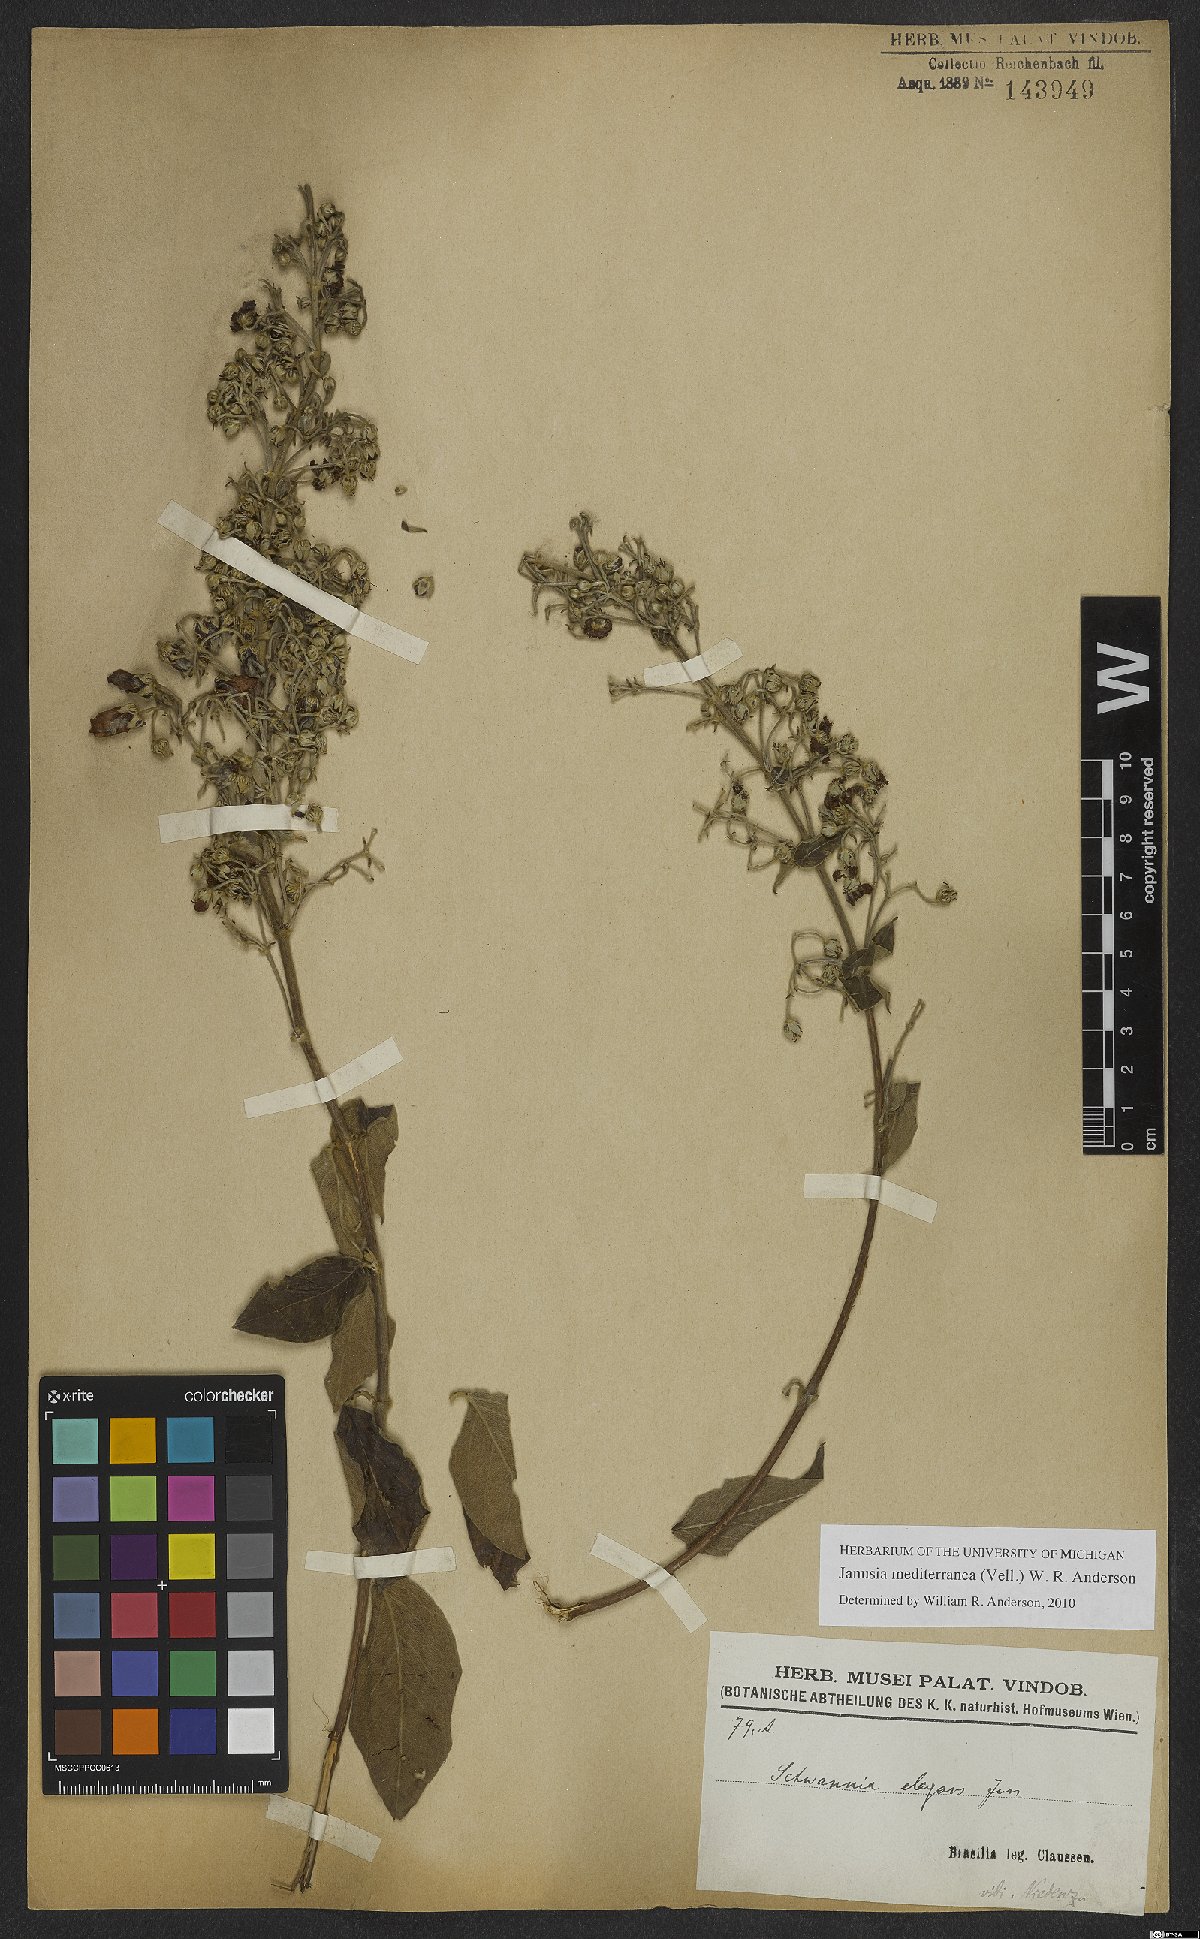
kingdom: Plantae
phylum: Tracheophyta
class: Magnoliopsida
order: Malpighiales
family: Malpighiaceae
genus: Janusia
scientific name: Janusia mediterranea
